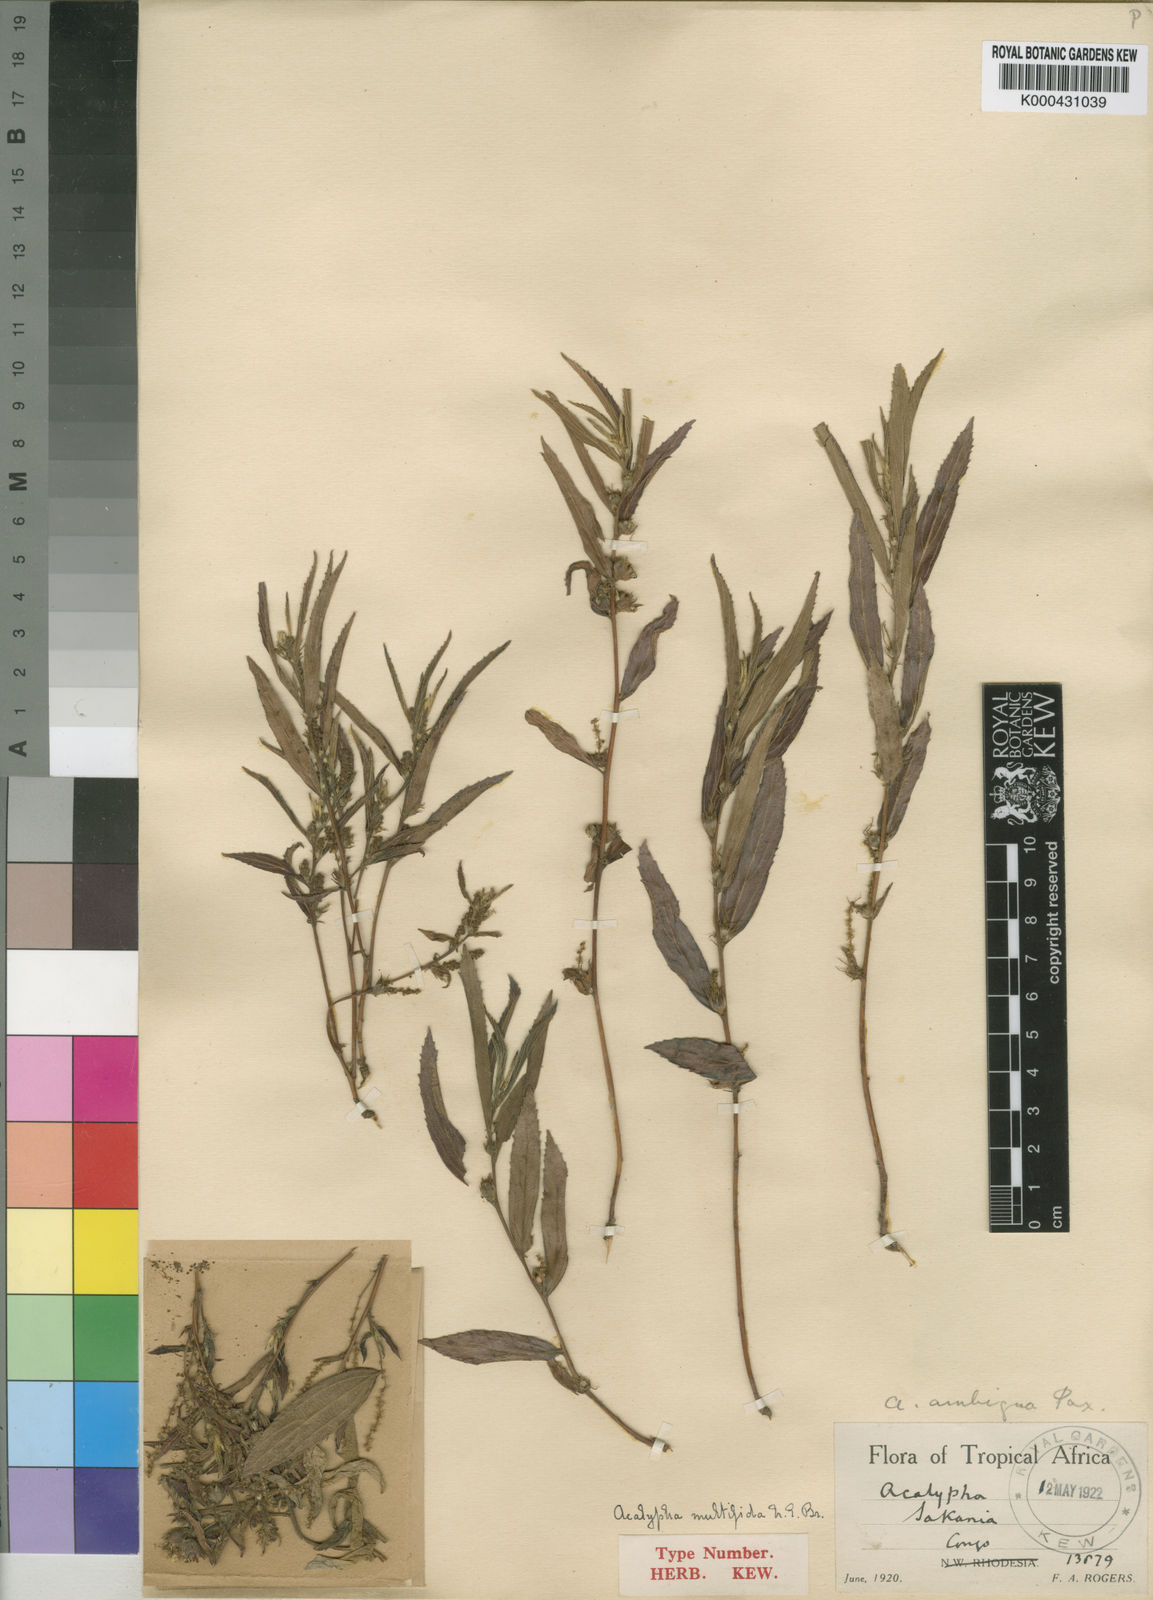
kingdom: Plantae
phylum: Tracheophyta
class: Magnoliopsida
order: Malpighiales
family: Euphorbiaceae
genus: Acalypha
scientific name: Acalypha multifida
